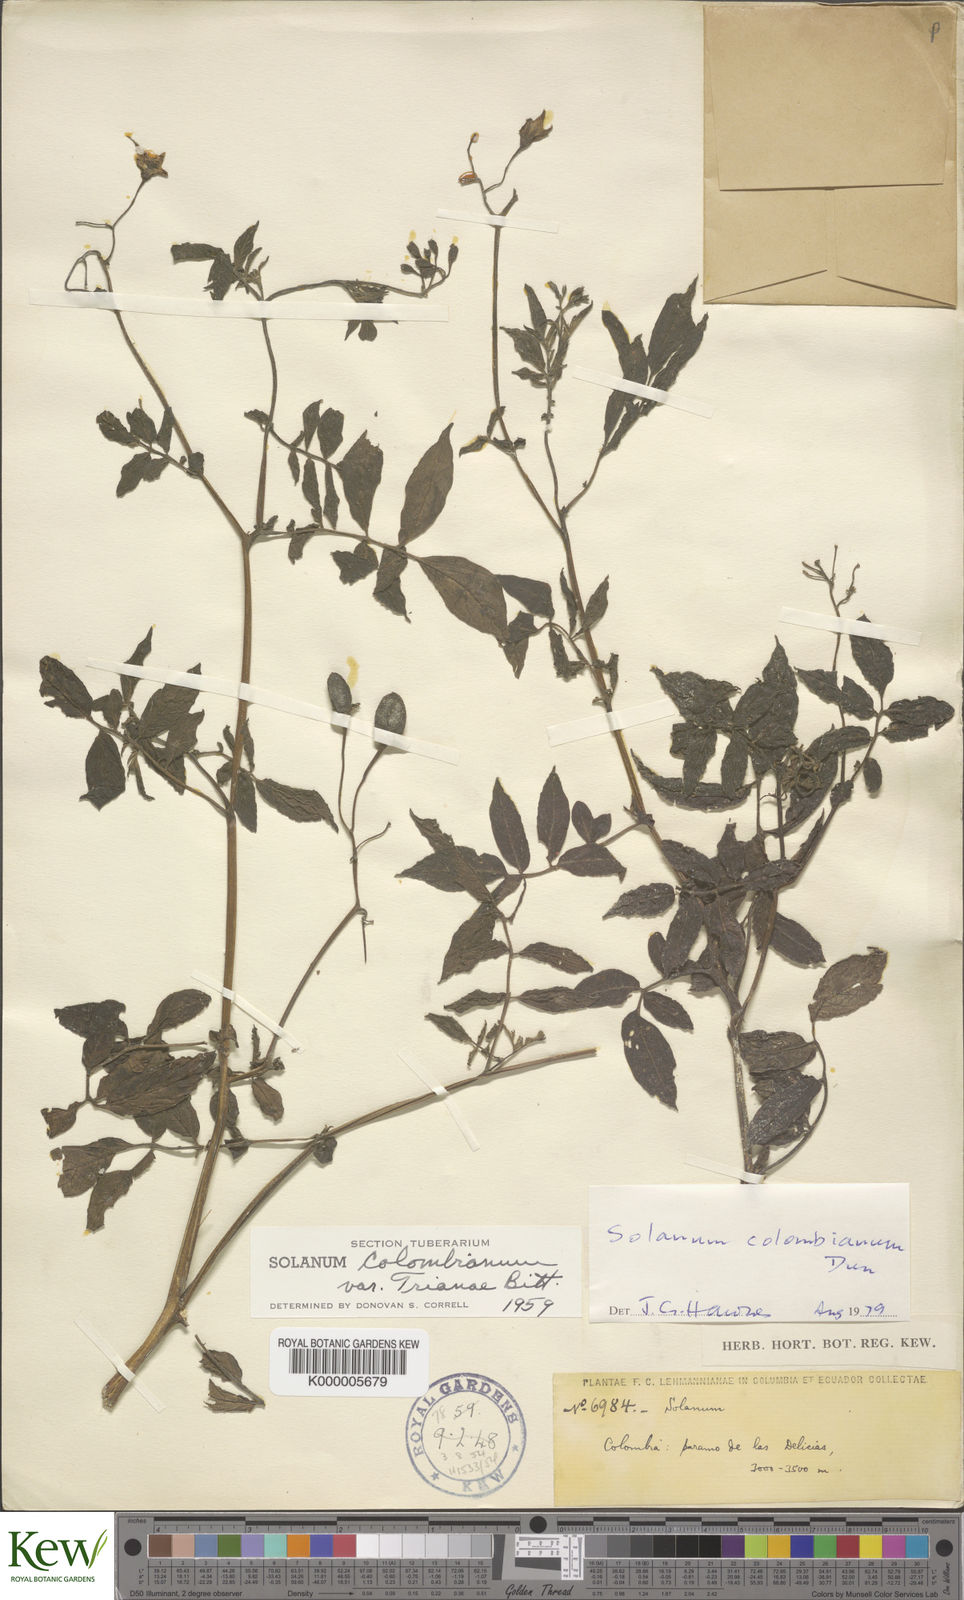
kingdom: Plantae
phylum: Tracheophyta
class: Magnoliopsida
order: Solanales
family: Solanaceae
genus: Solanum
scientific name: Solanum colombianum
